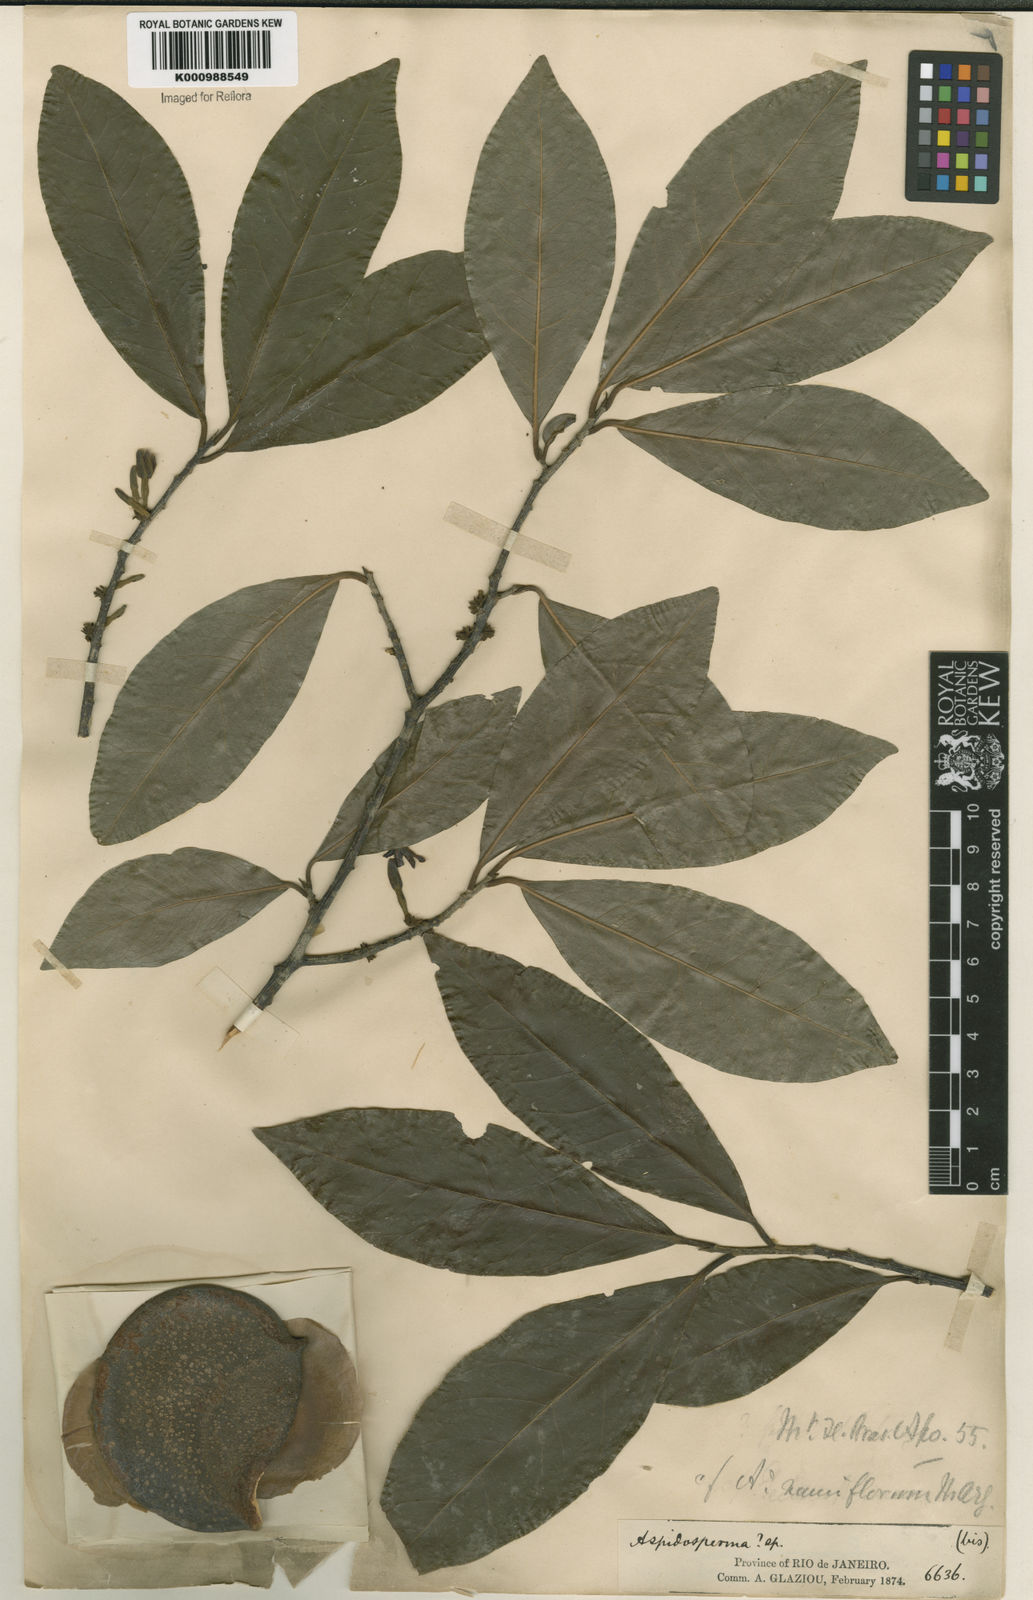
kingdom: Plantae
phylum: Tracheophyta
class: Magnoliopsida
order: Gentianales
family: Apocynaceae
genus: Aspidosperma
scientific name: Aspidosperma
